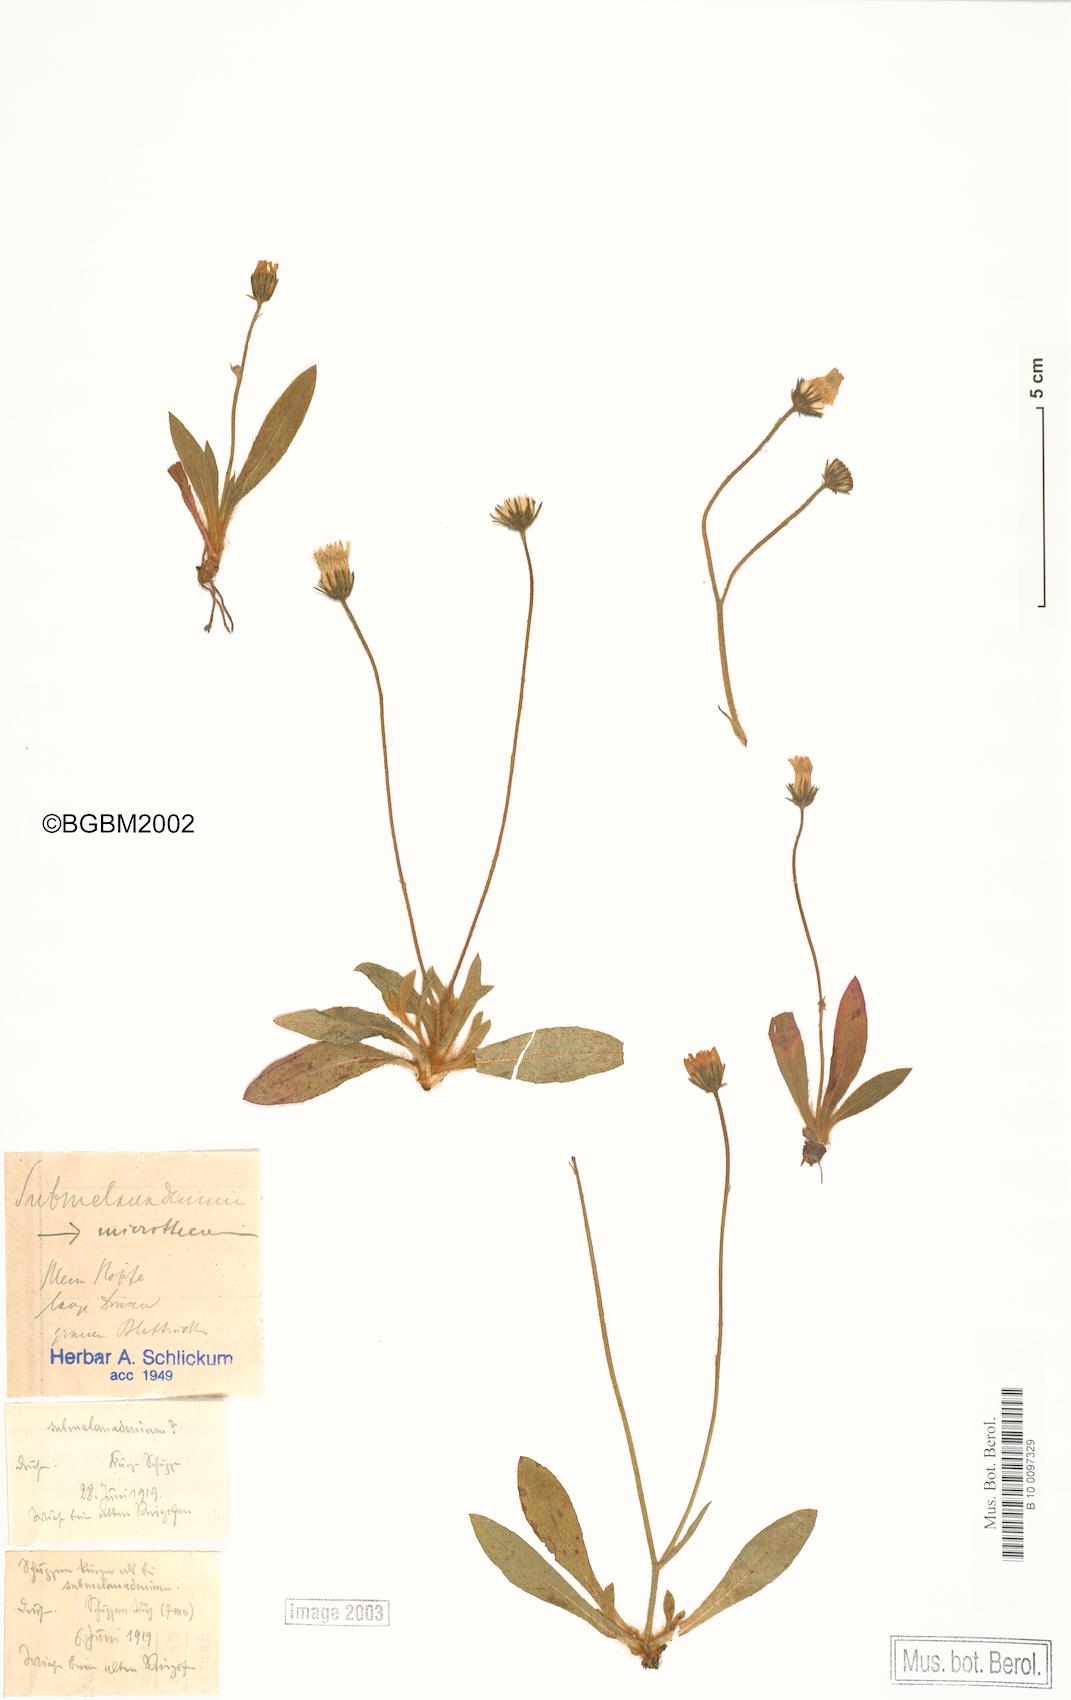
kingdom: Plantae
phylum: Tracheophyta
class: Magnoliopsida
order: Asterales
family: Asteraceae
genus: Pilosella
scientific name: Pilosella acutifolia
